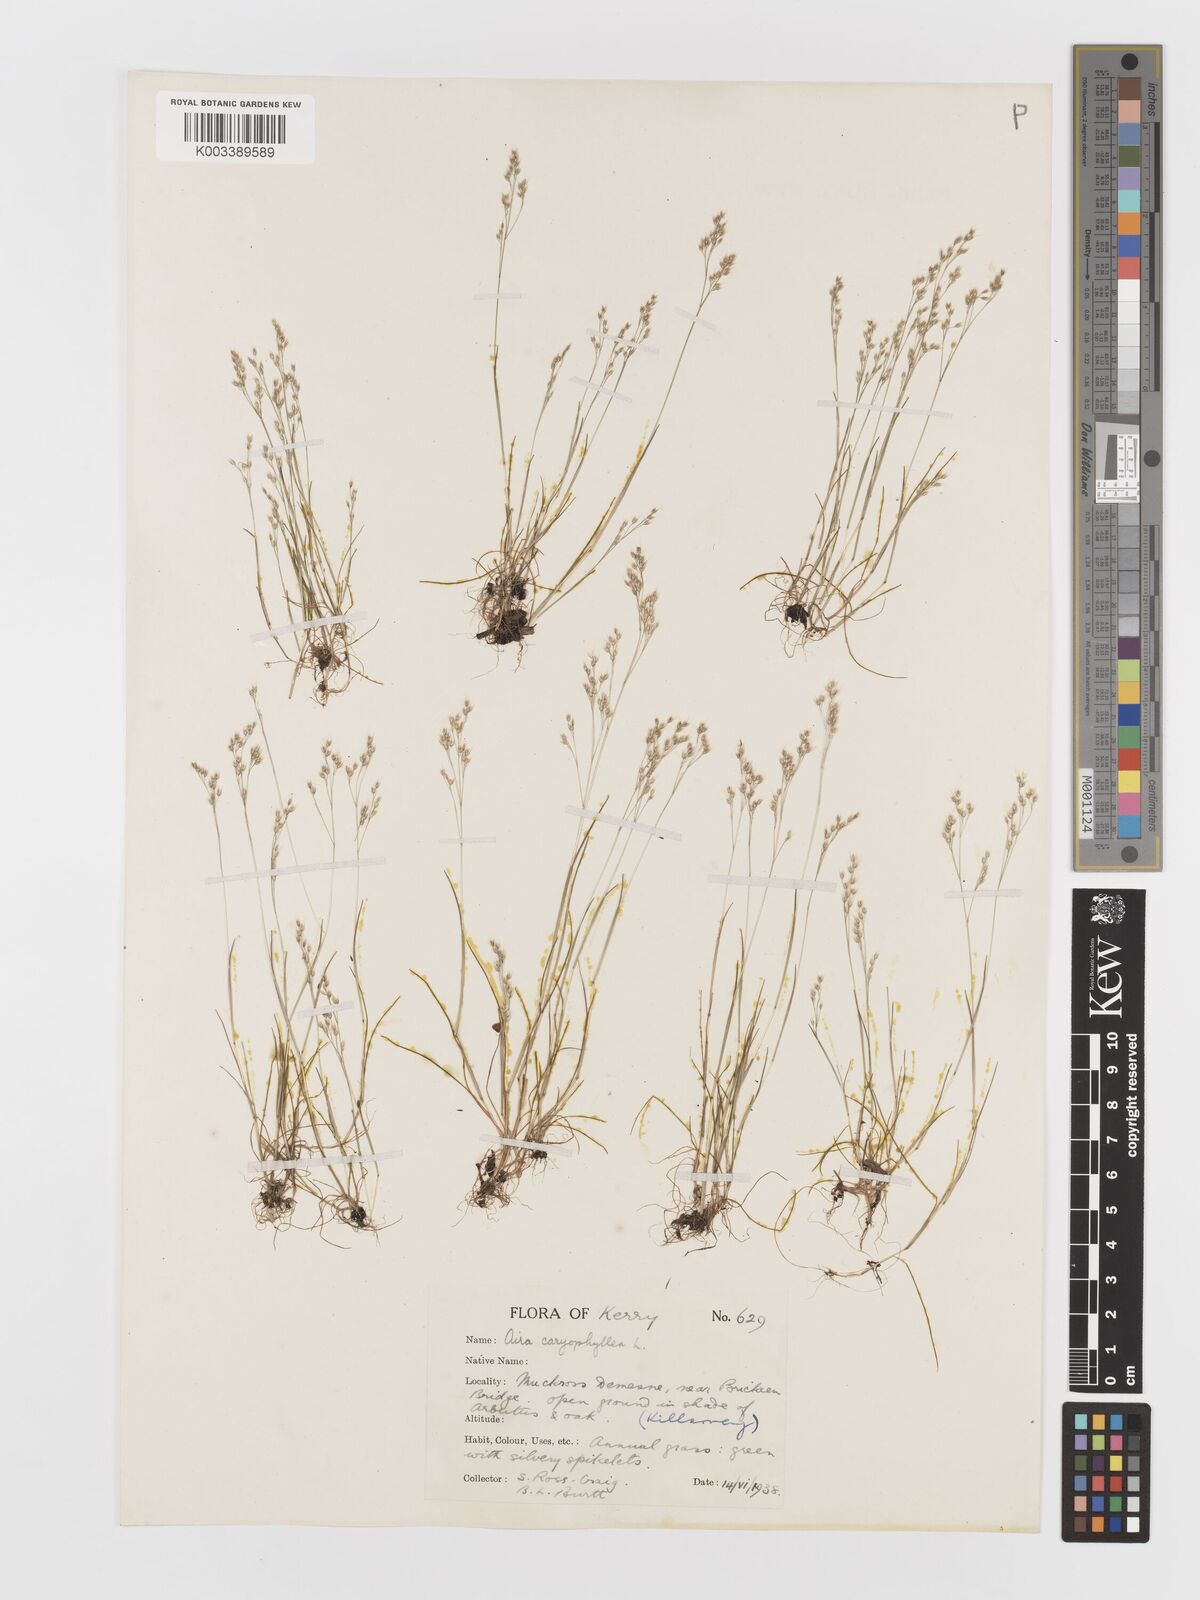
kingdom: Plantae
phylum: Tracheophyta
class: Liliopsida
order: Poales
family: Poaceae
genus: Aira
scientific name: Aira caryophyllea
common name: Silver hairgrass
